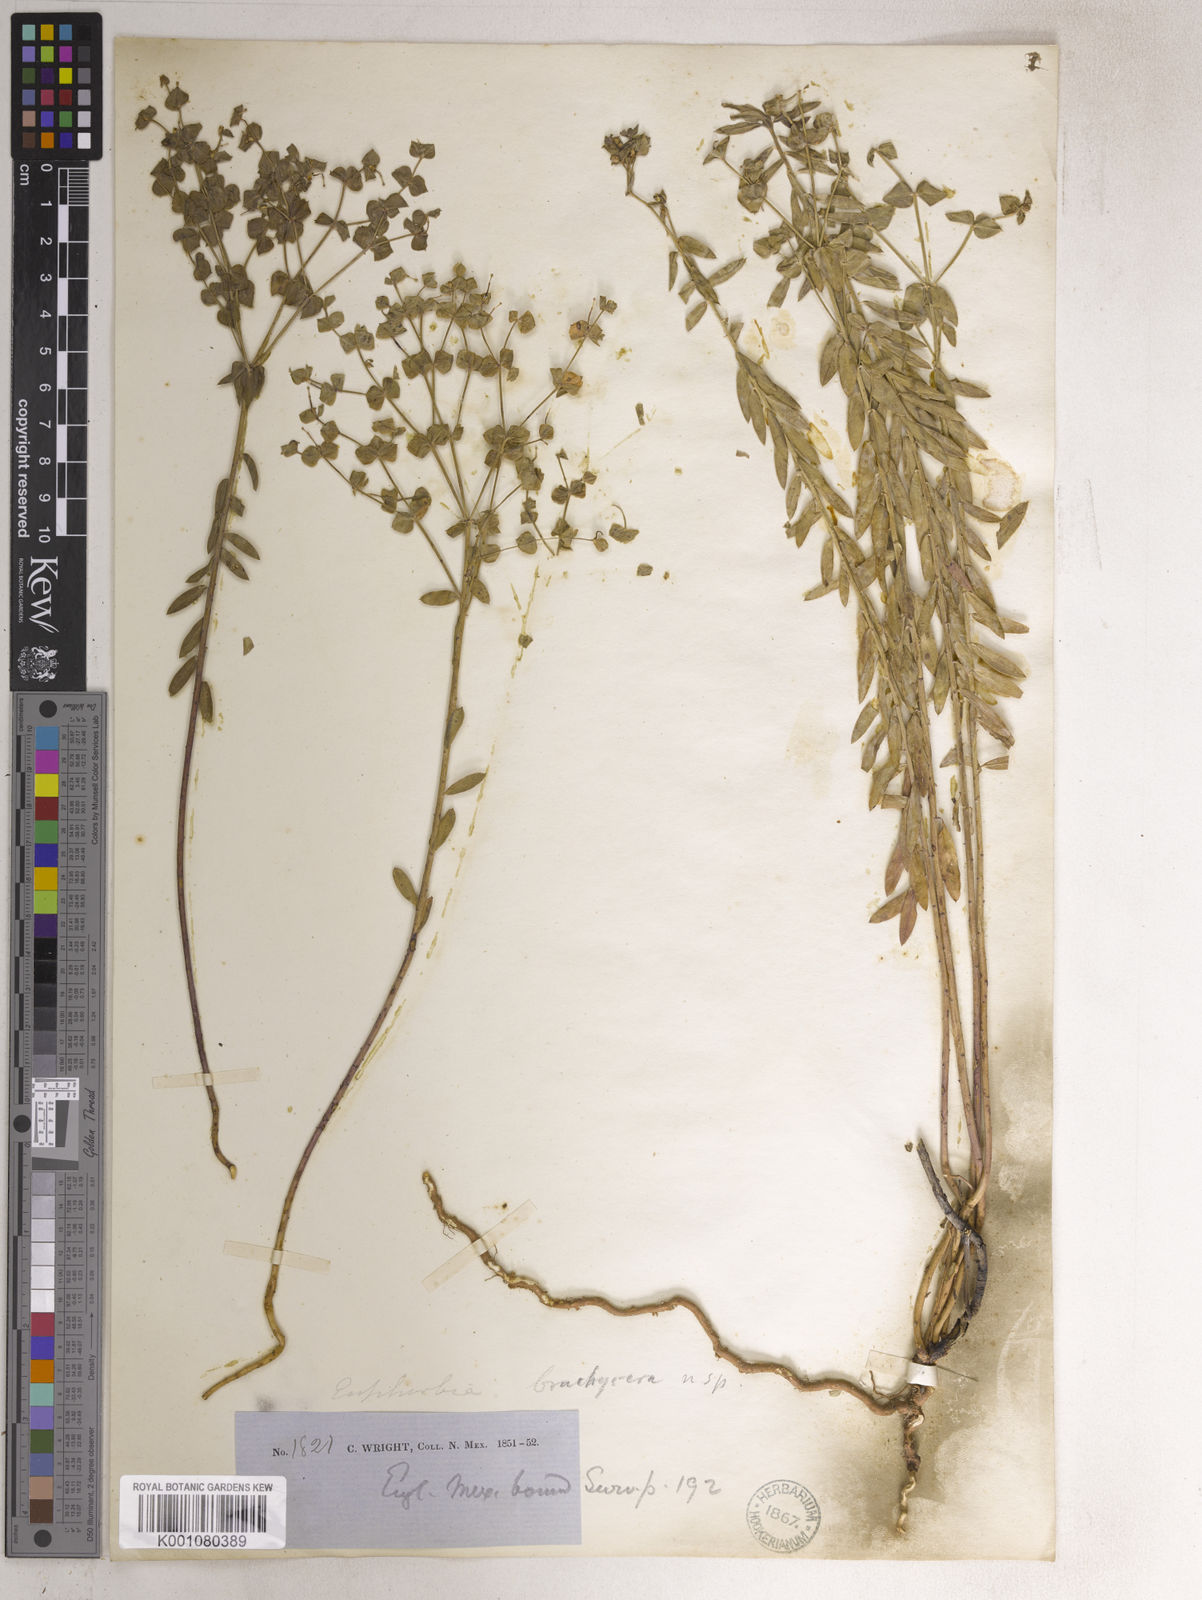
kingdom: Plantae
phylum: Tracheophyta
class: Magnoliopsida
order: Malpighiales
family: Euphorbiaceae
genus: Euphorbia
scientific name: Euphorbia
